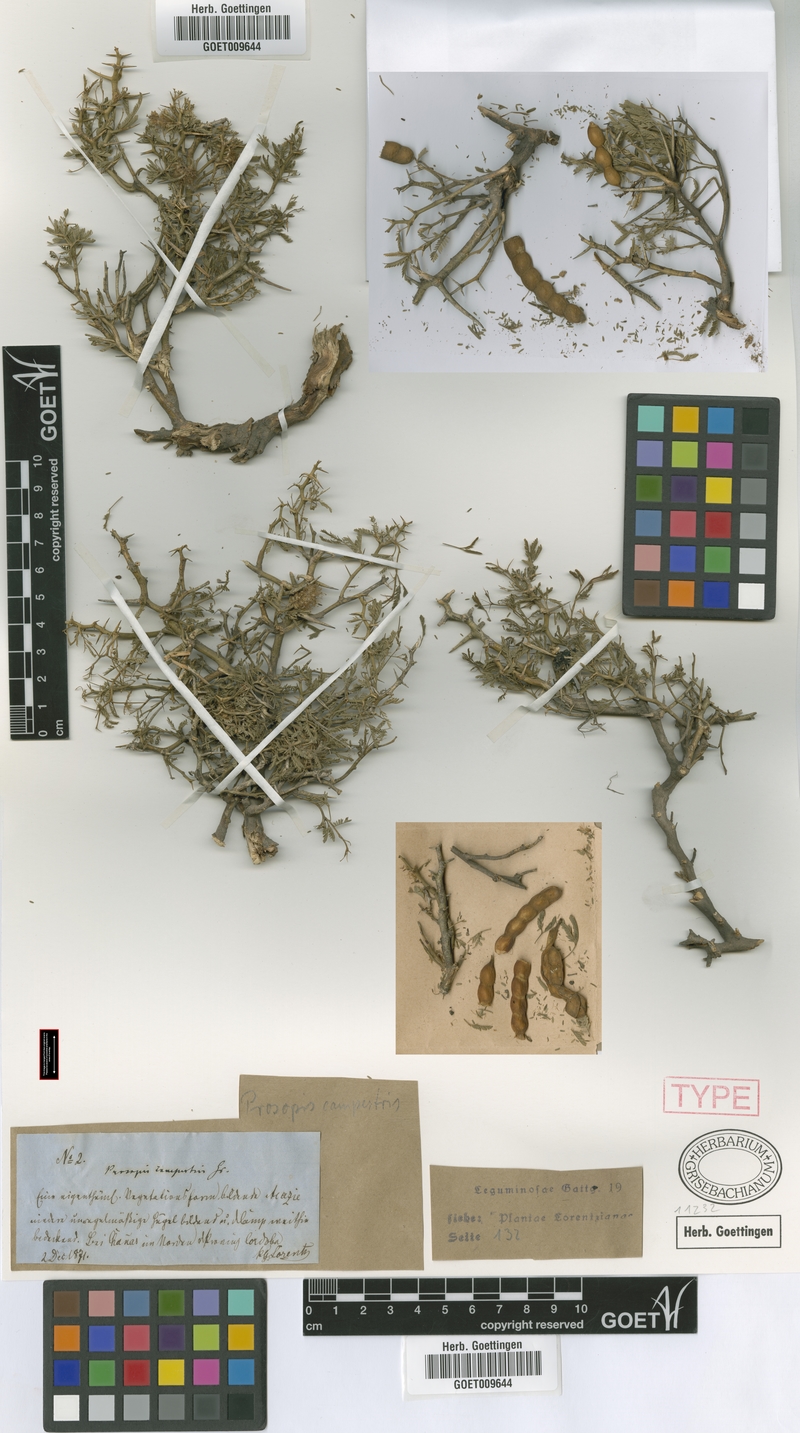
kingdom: Plantae
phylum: Tracheophyta
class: Magnoliopsida
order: Fabales
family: Fabaceae
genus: Prosopis
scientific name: Prosopis campestris
